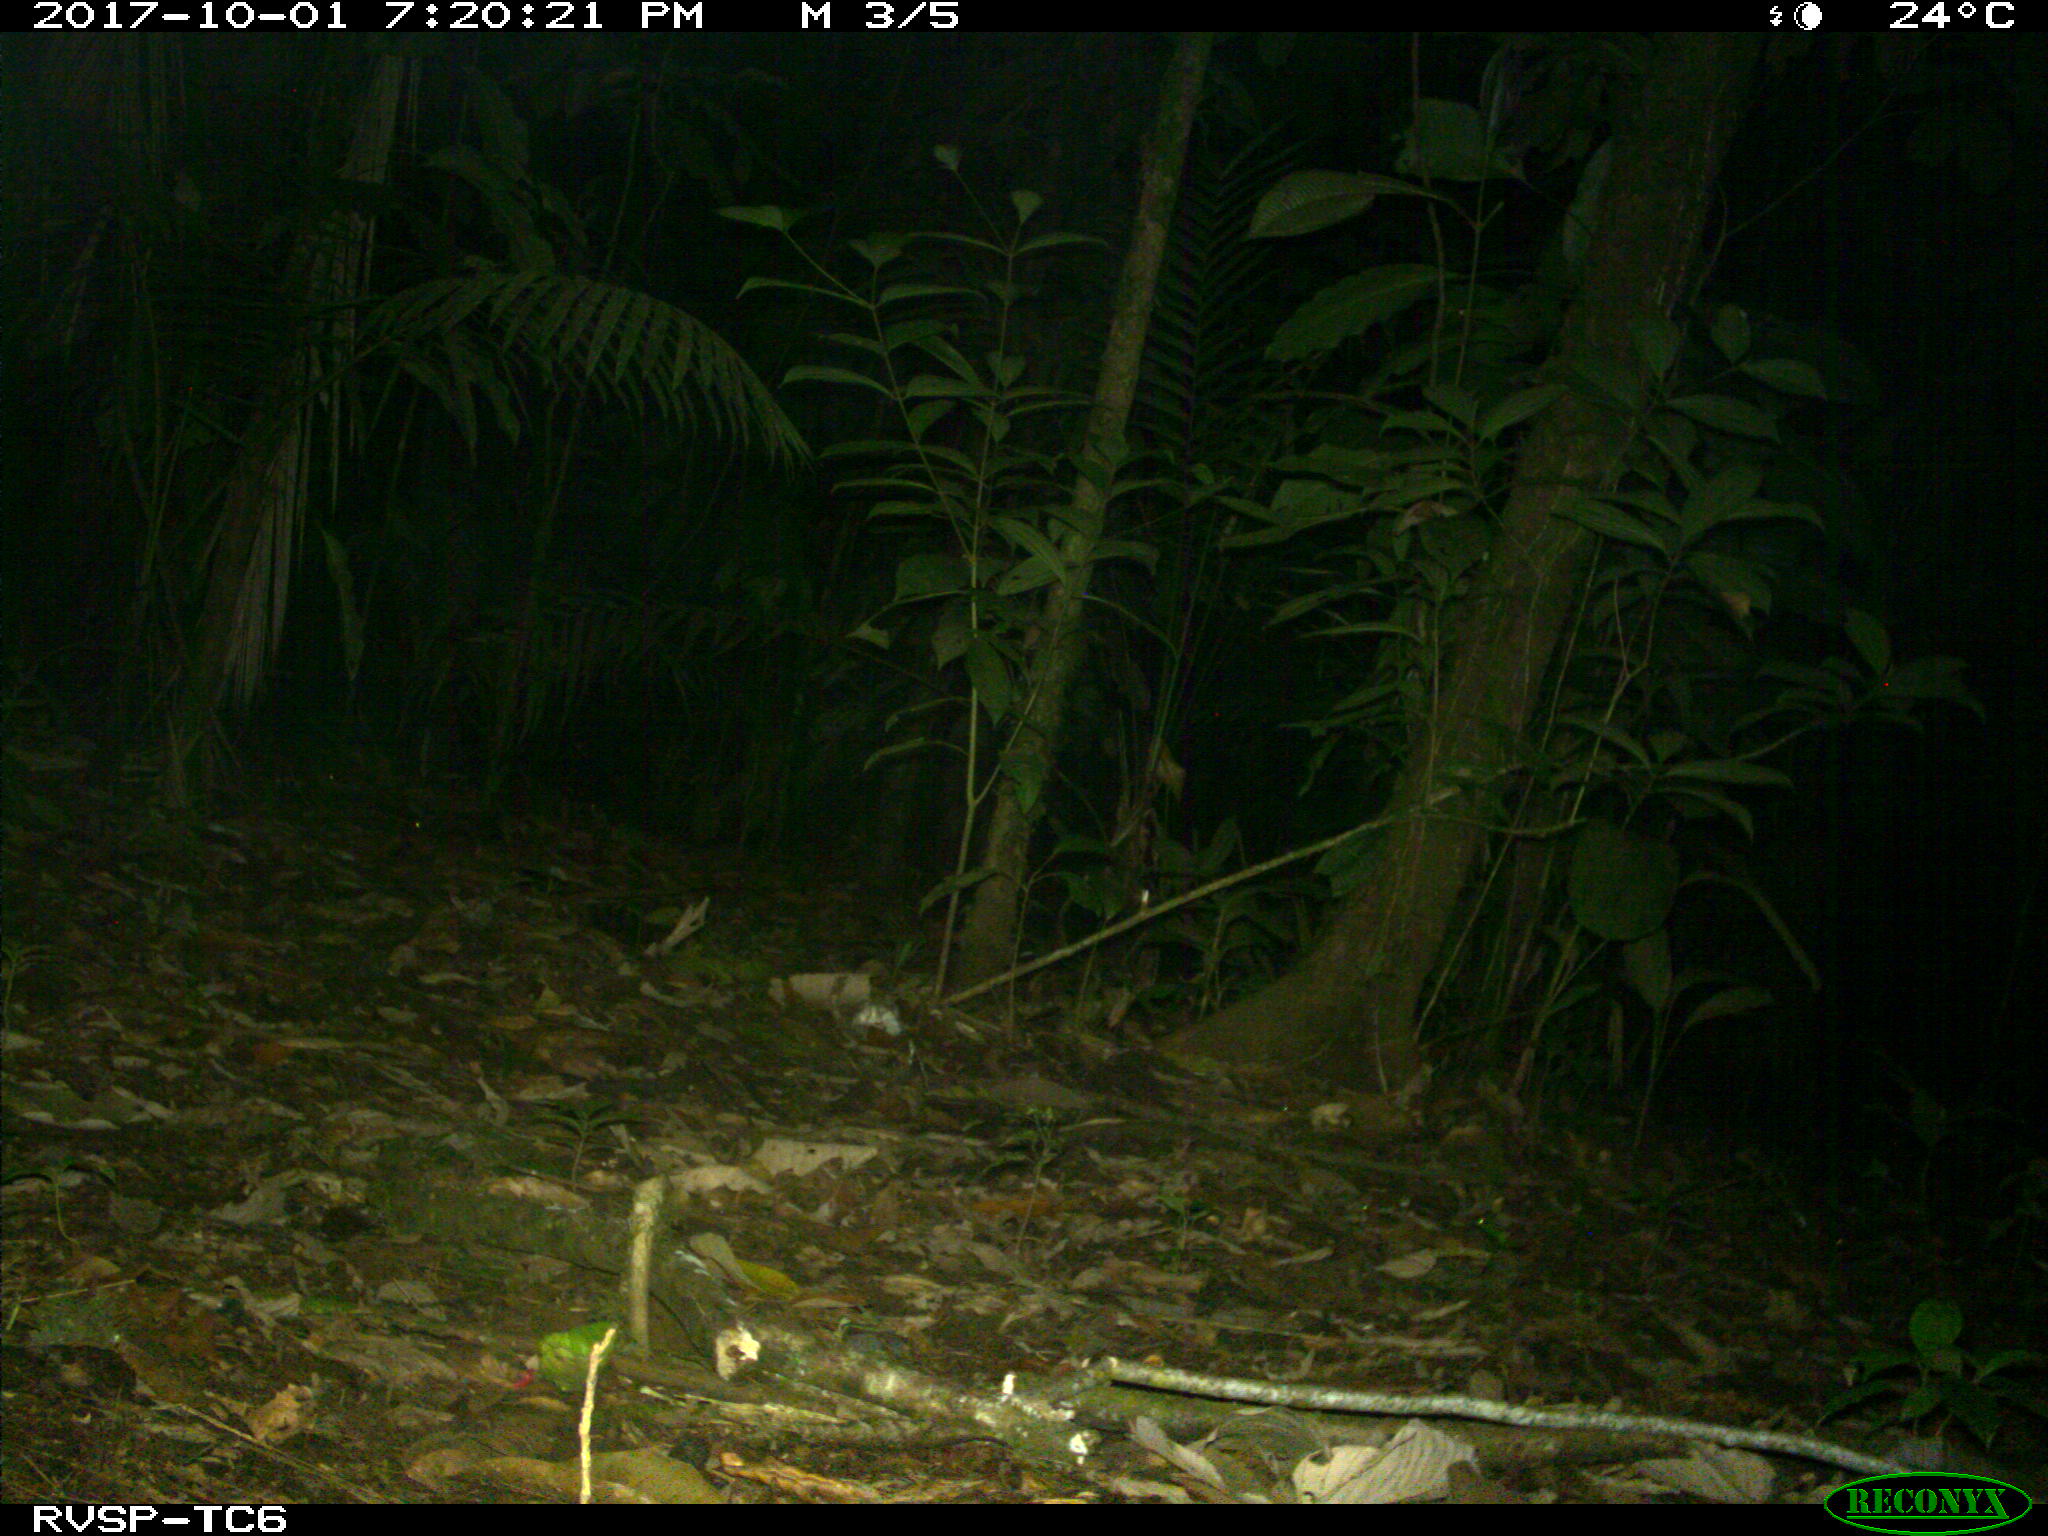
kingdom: Animalia
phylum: Chordata
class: Mammalia
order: Carnivora
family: Felidae
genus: Leopardus
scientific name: Leopardus wiedii
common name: Margay
